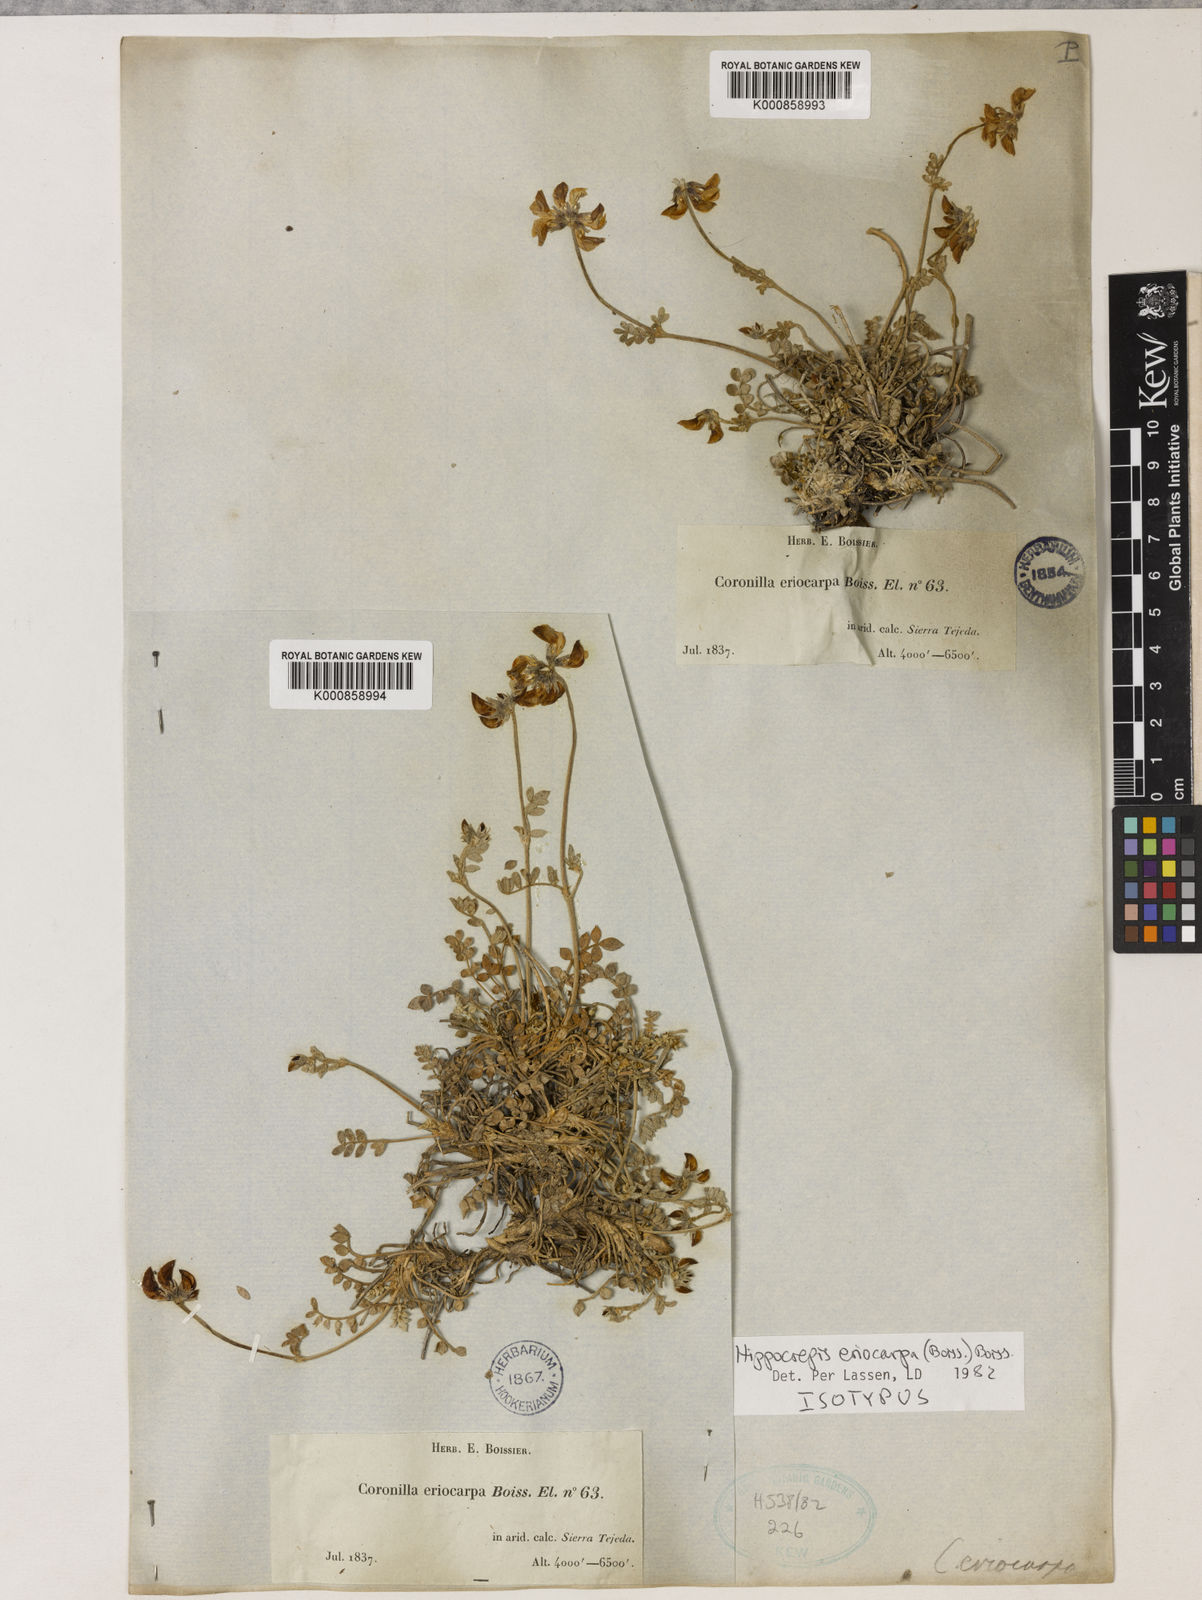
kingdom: Plantae
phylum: Tracheophyta
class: Magnoliopsida
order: Fabales
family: Fabaceae
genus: Hippocrepis
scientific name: Hippocrepis eriocarpa
